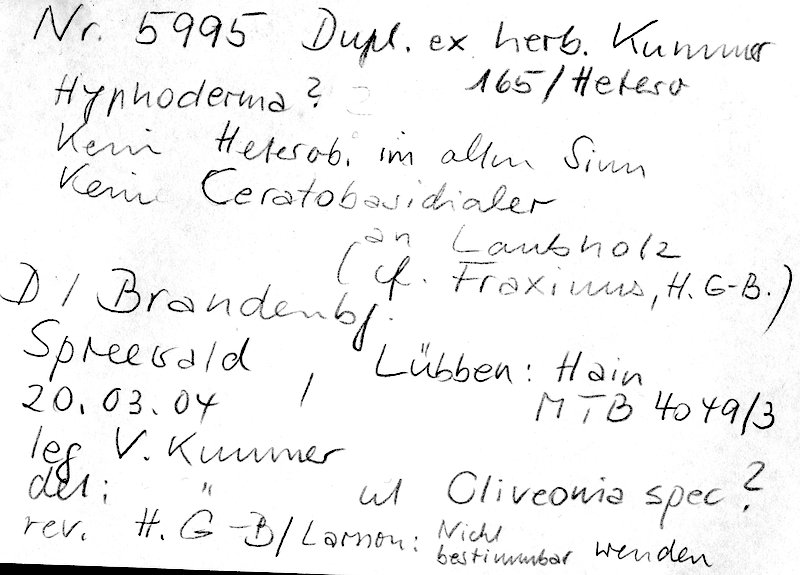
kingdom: Plantae
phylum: Tracheophyta
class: Magnoliopsida
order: Lamiales
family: Oleaceae
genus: Fraxinus
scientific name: Fraxinus
